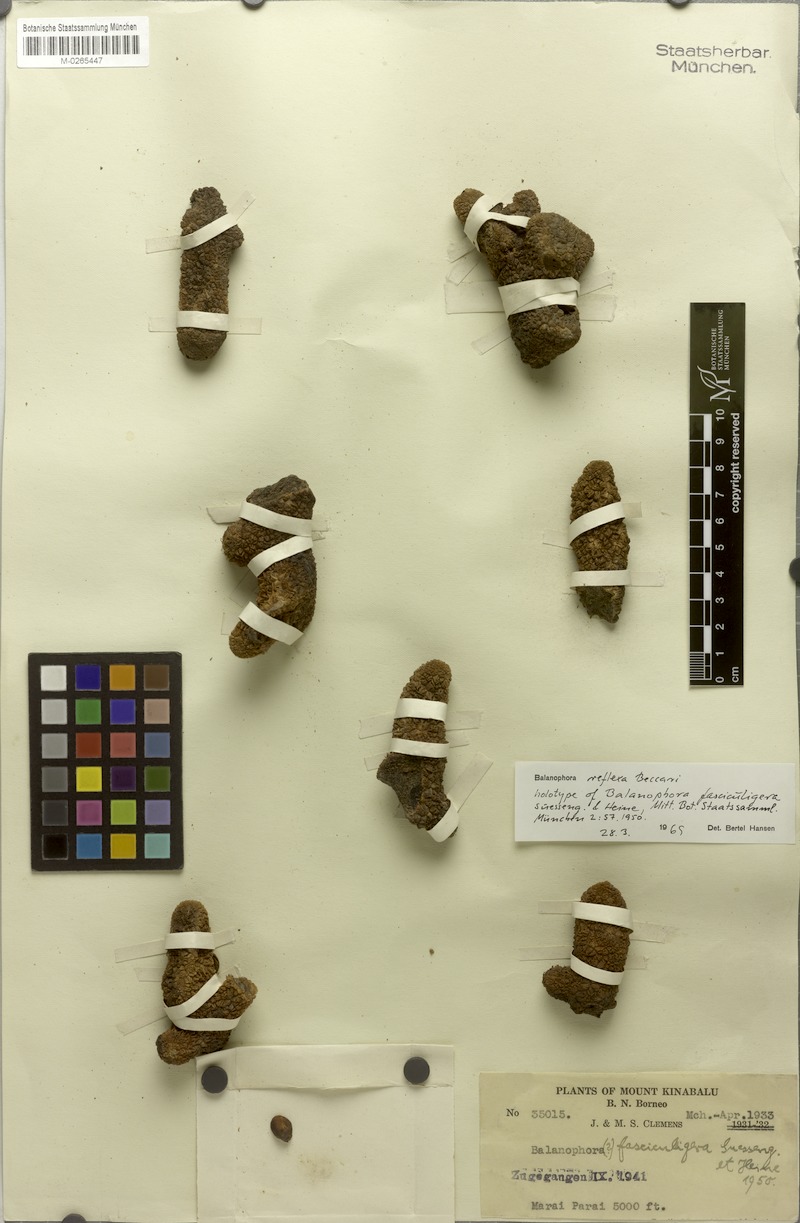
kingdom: Plantae
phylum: Tracheophyta
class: Magnoliopsida
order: Santalales
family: Balanophoraceae
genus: Balanophora
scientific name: Balanophora reflexa
